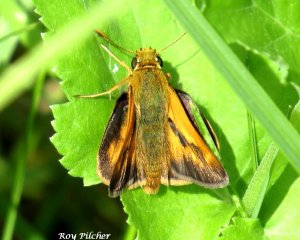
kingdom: Animalia
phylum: Arthropoda
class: Insecta
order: Lepidoptera
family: Hesperiidae
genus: Hesperia
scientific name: Hesperia sassacus
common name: Sassacus Skipper
